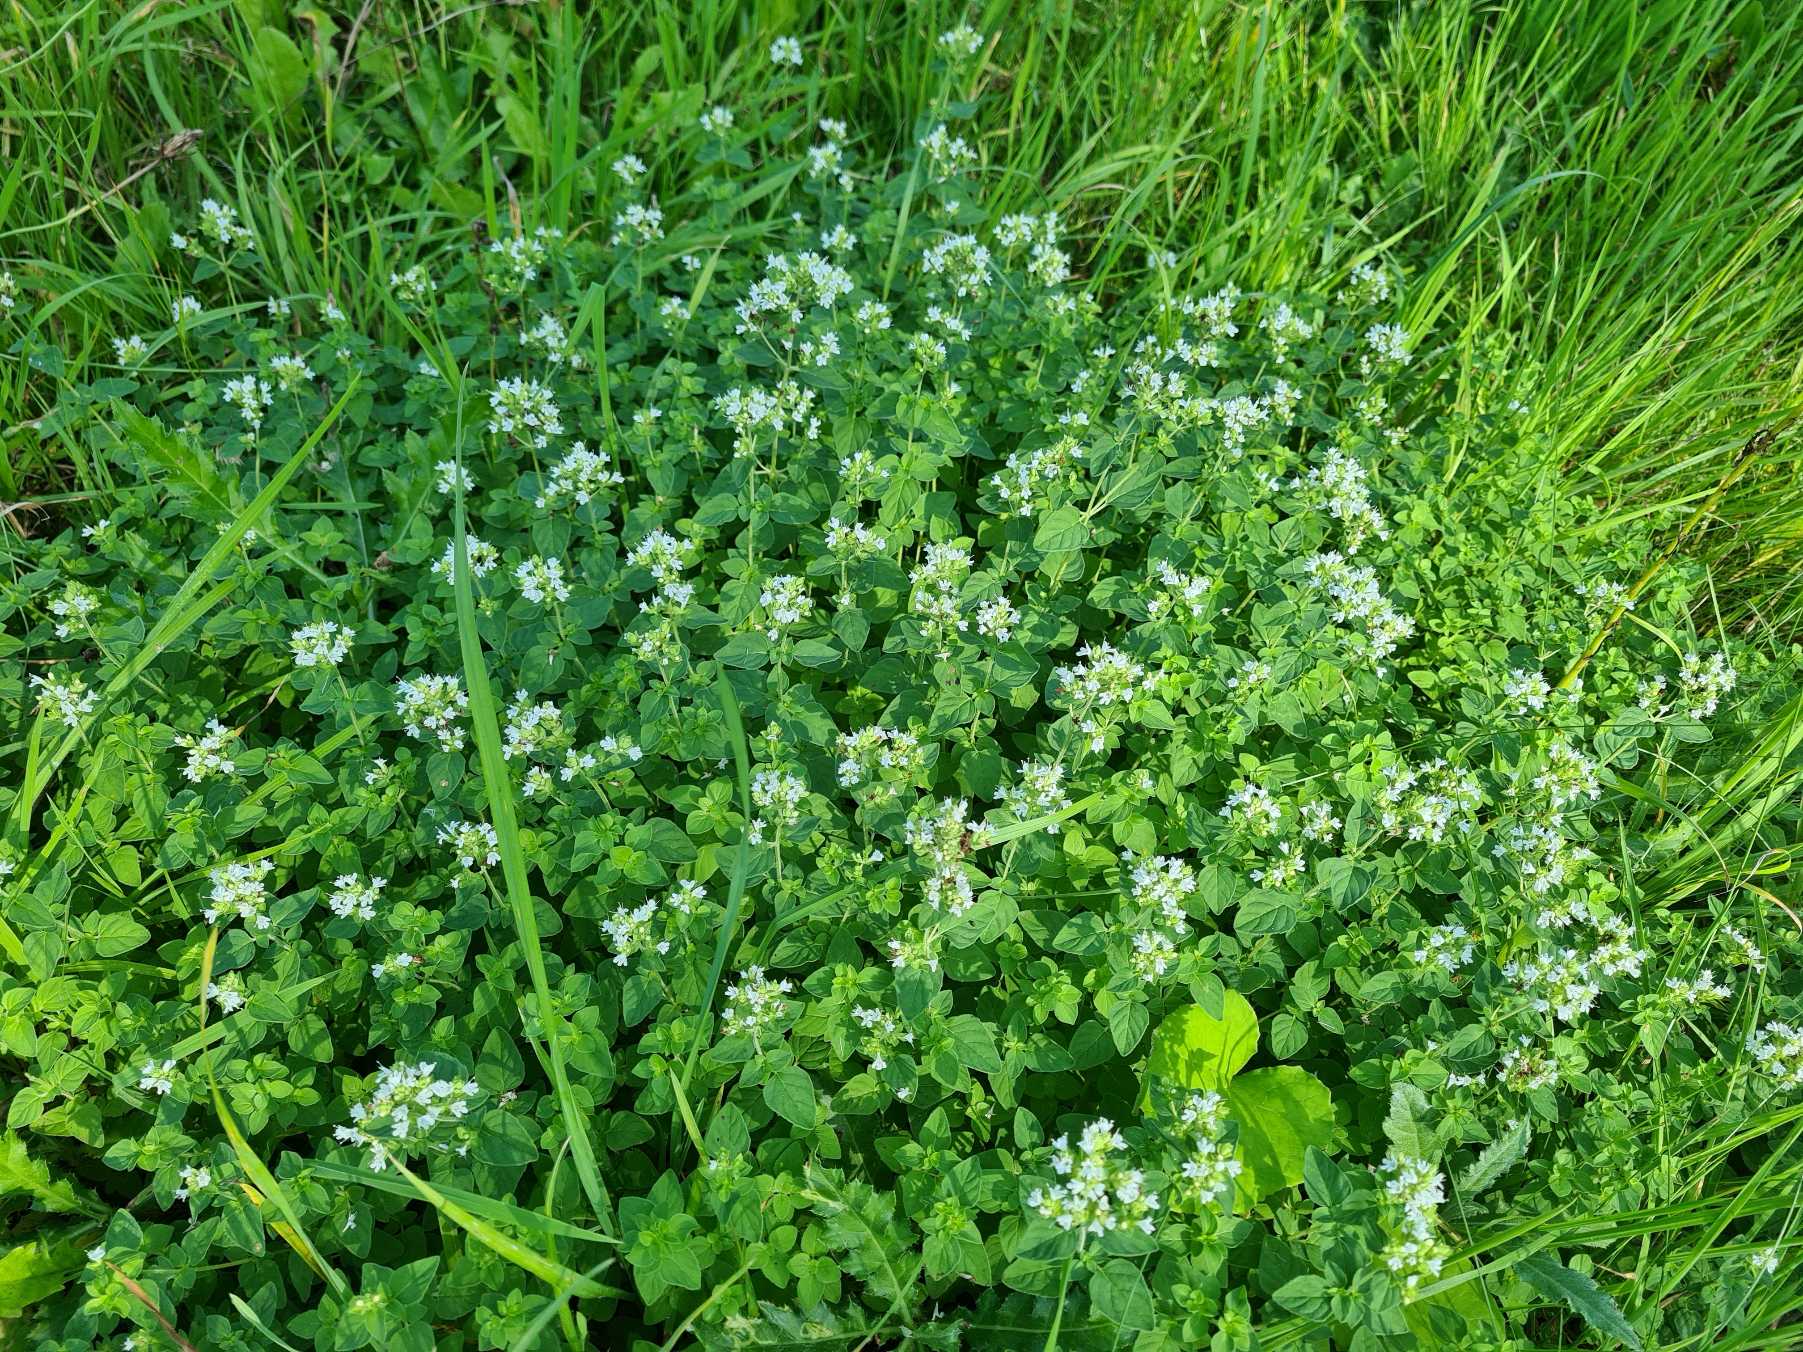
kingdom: Plantae
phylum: Tracheophyta
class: Magnoliopsida
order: Lamiales
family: Lamiaceae
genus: Origanum
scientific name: Origanum vulgare
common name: Merian
